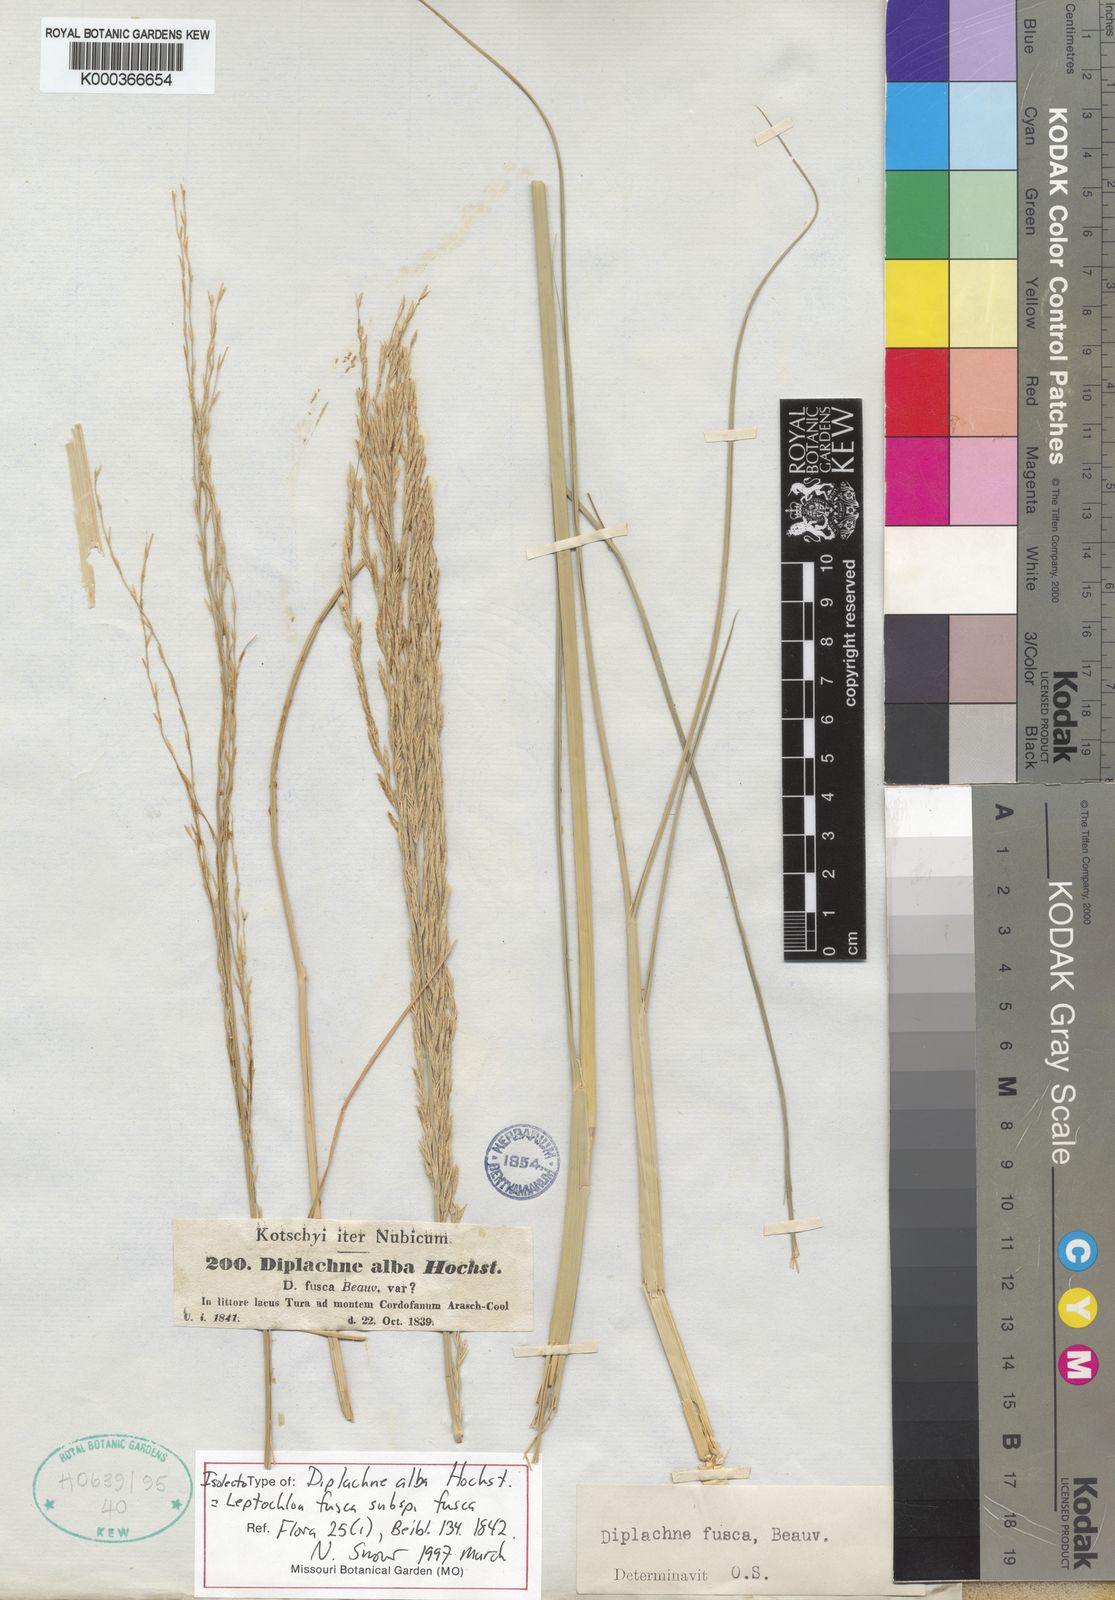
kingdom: Plantae
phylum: Tracheophyta
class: Liliopsida
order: Poales
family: Poaceae
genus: Diplachne
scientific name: Diplachne fusca
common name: Brown beetle grass
